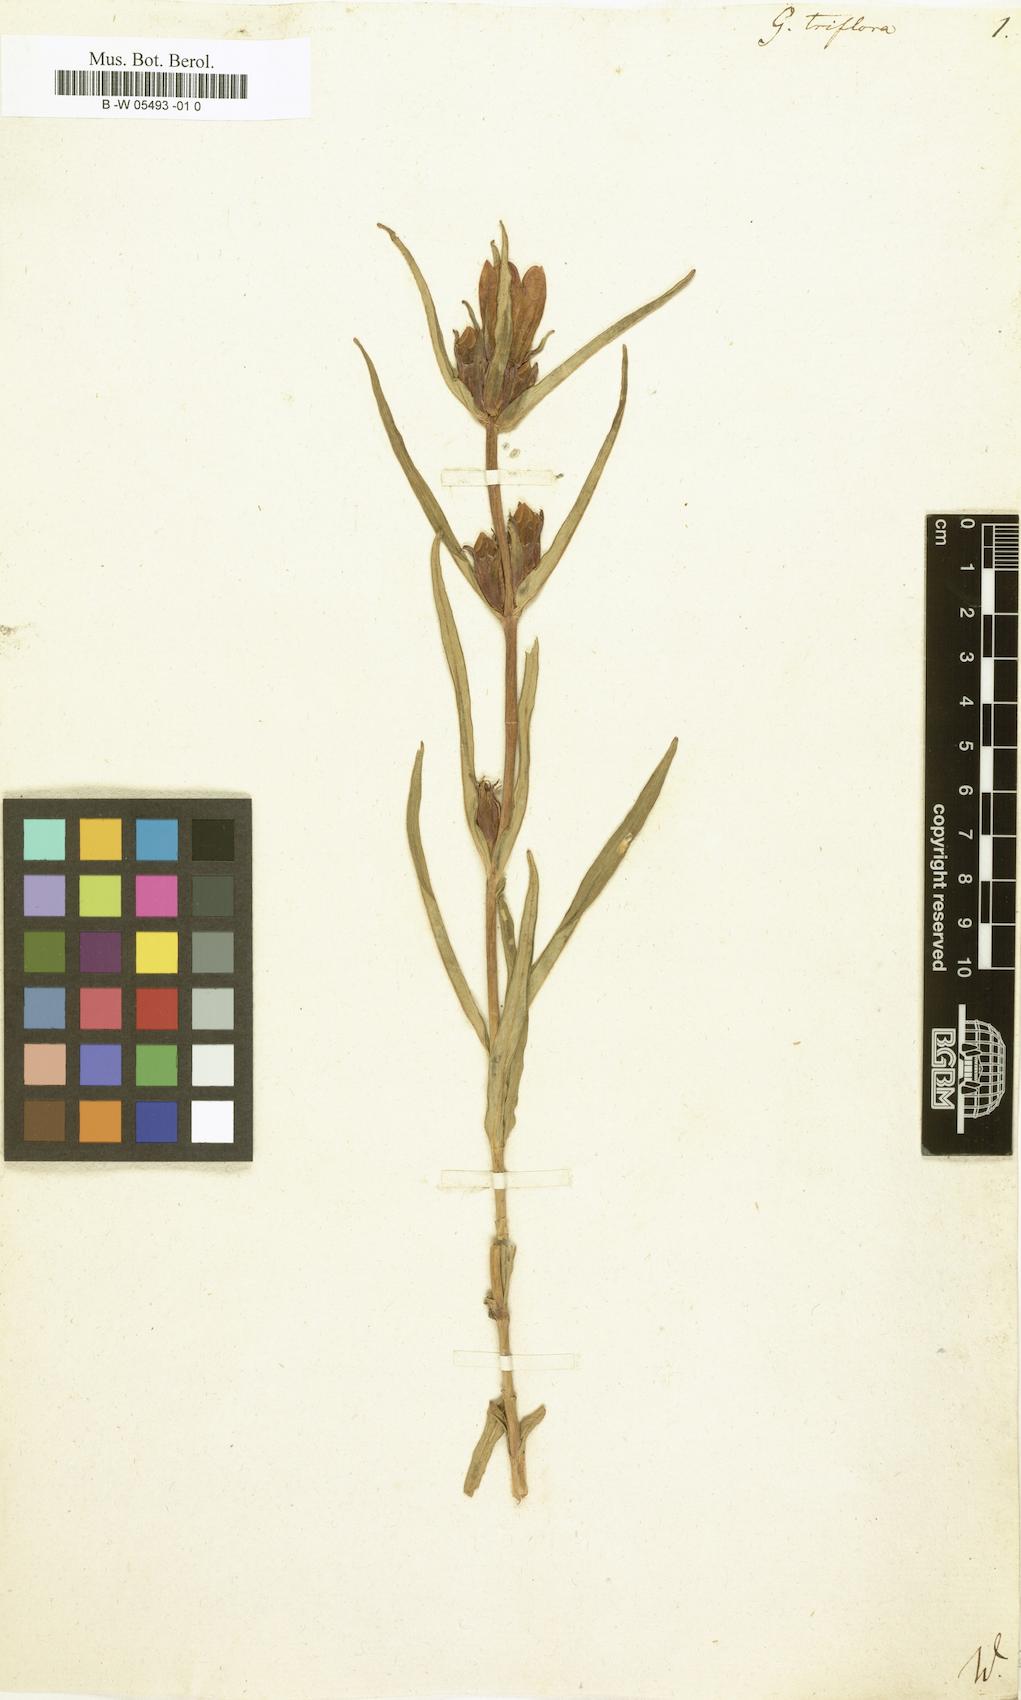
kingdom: Plantae
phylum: Tracheophyta
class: Magnoliopsida
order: Gentianales
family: Gentianaceae
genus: Gentiana
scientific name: Gentiana triflora
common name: Three-flower gentian
